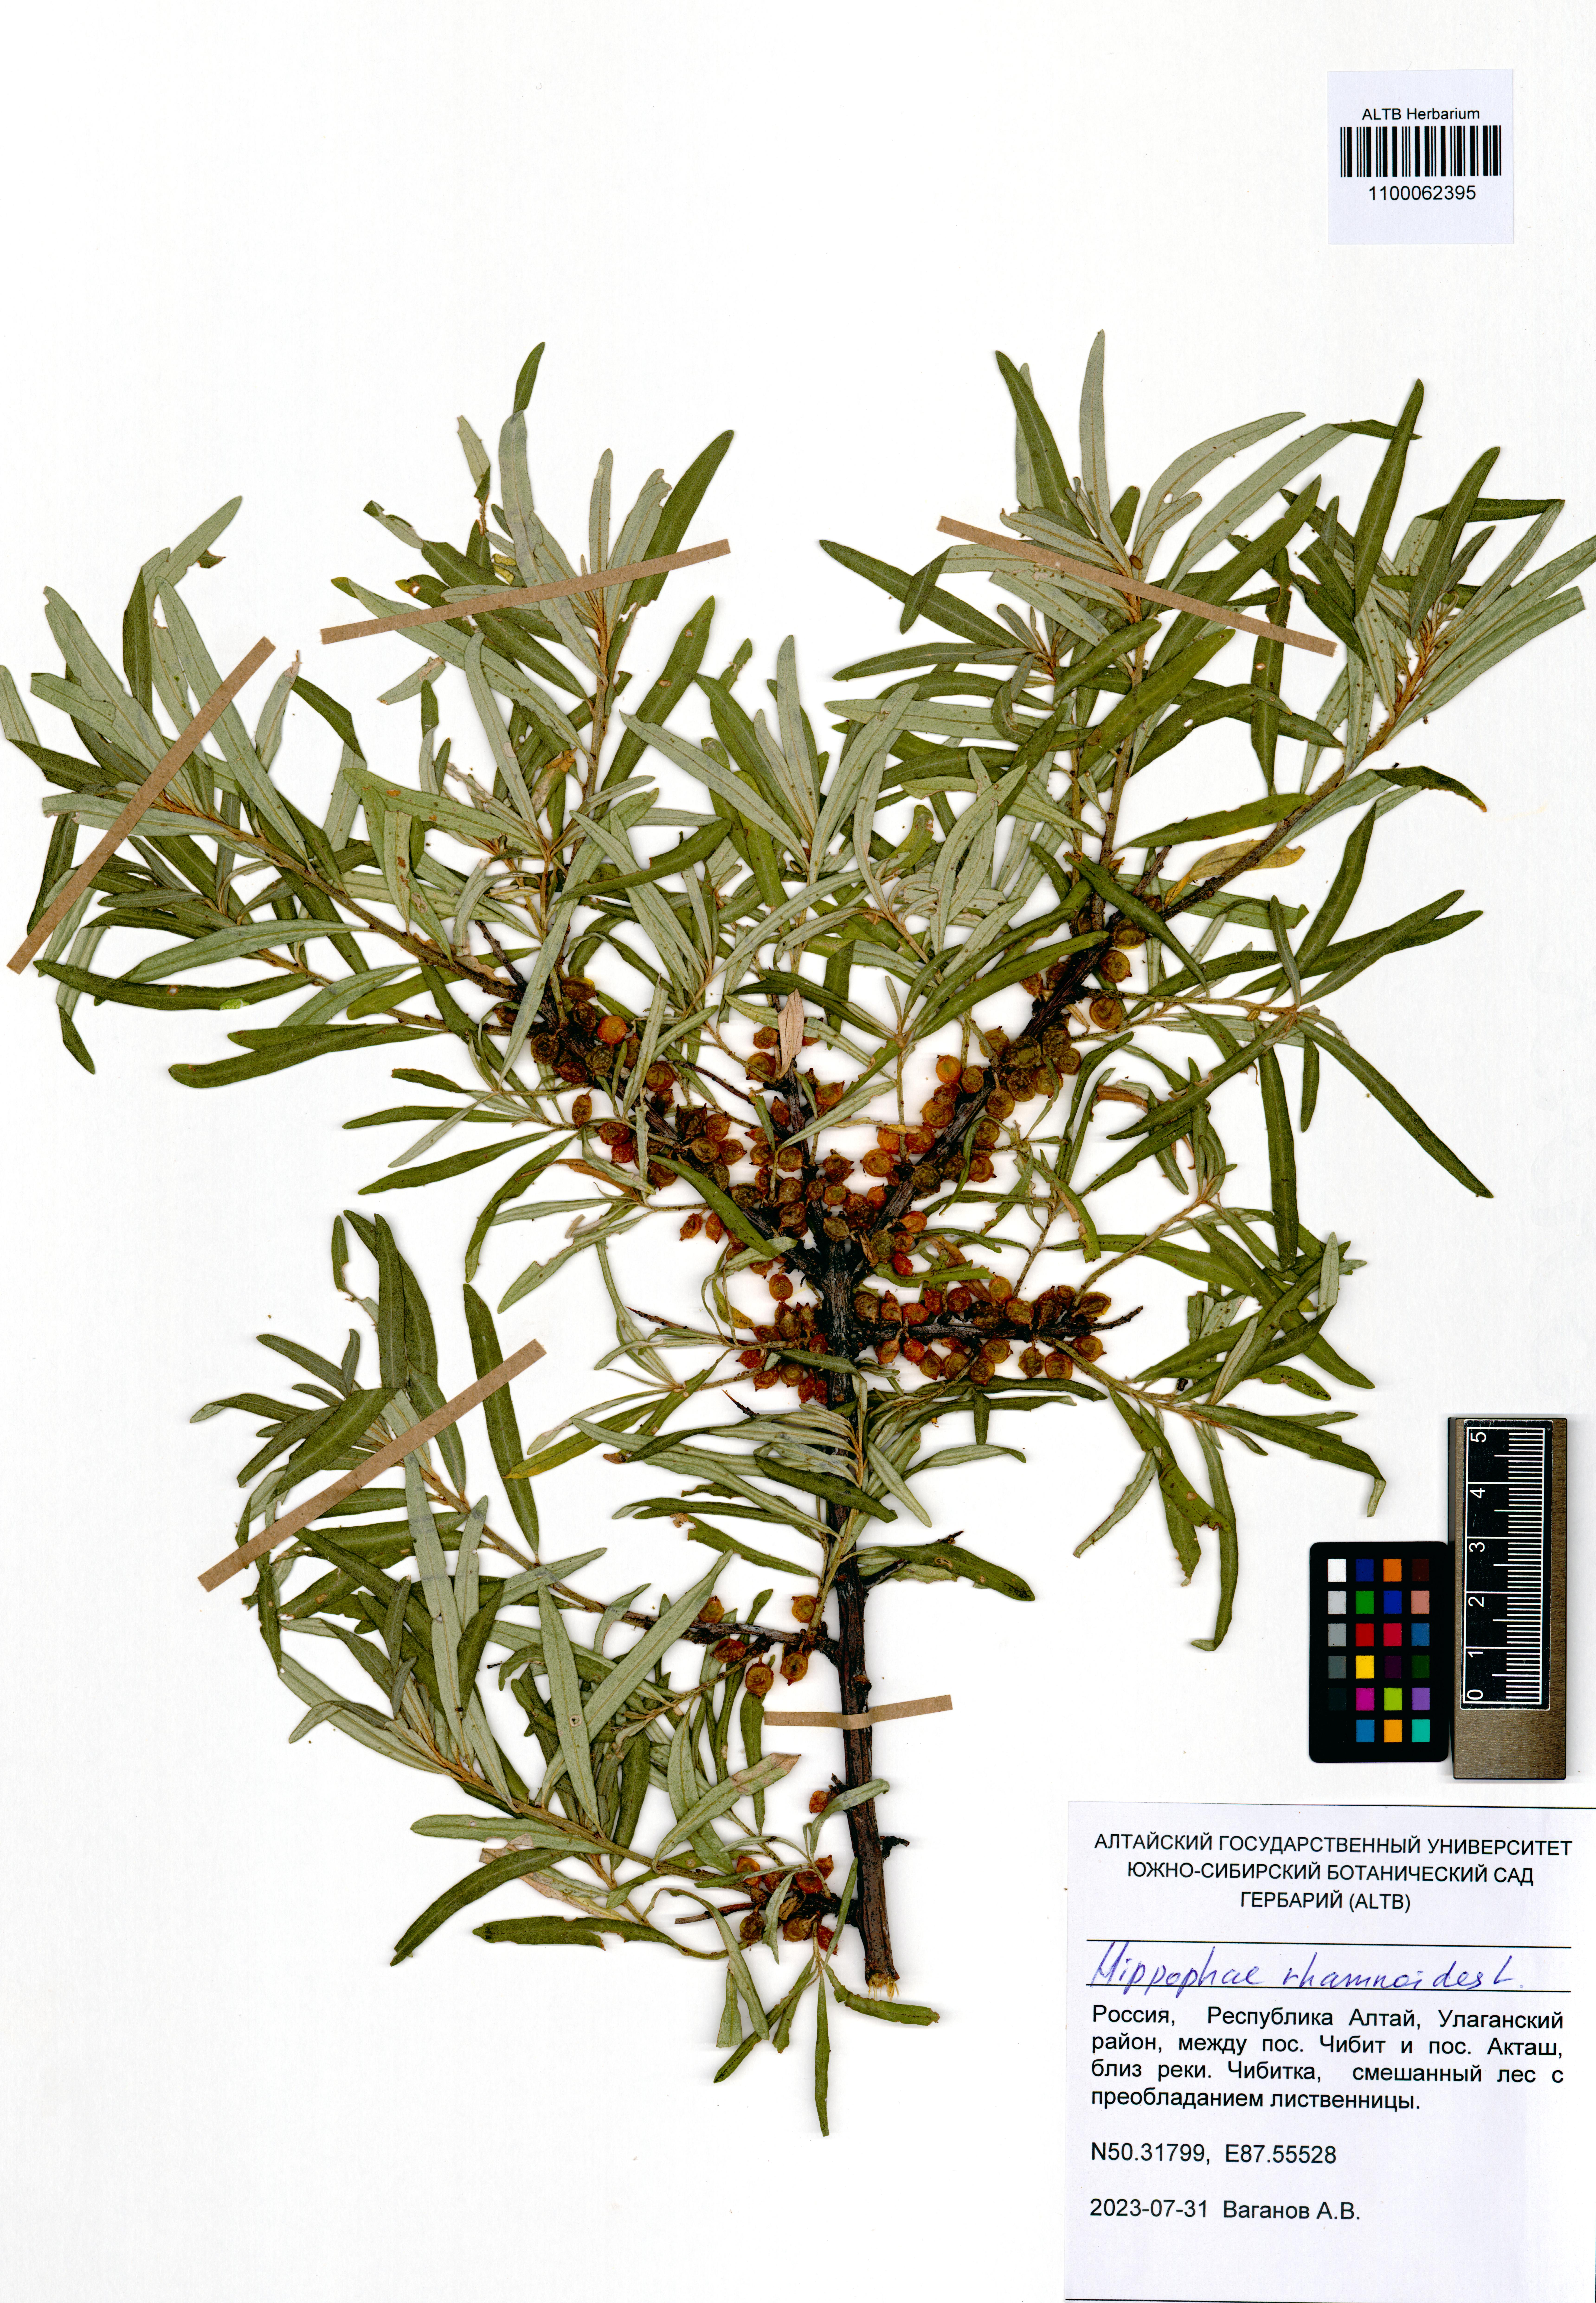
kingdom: Plantae
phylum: Tracheophyta
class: Magnoliopsida
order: Rosales
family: Elaeagnaceae
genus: Hippophae
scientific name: Hippophae rhamnoides
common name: Sea-buckthorn
